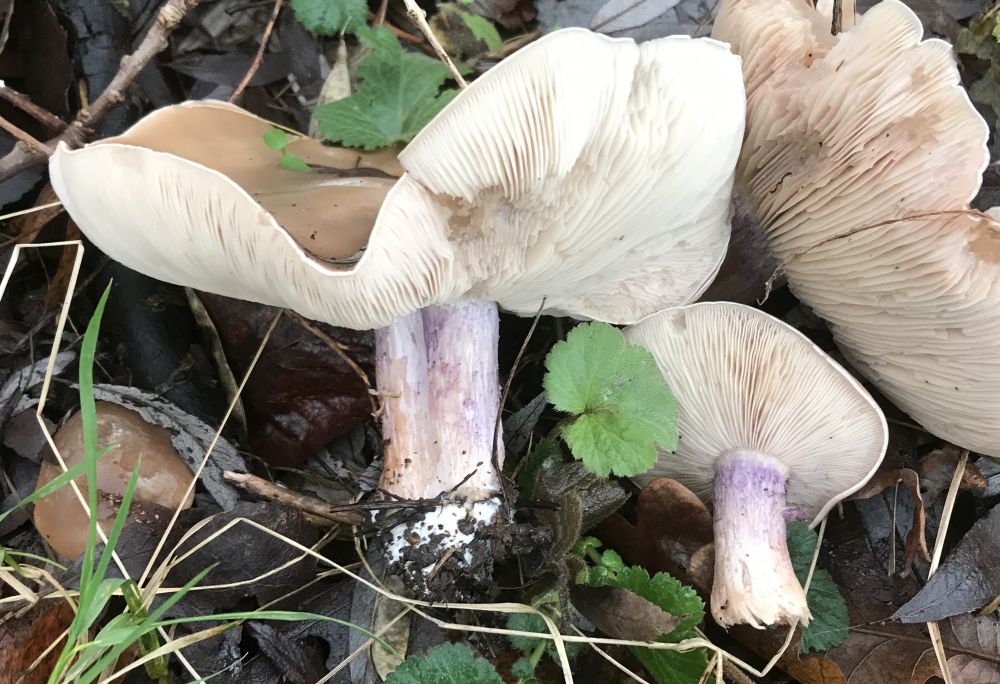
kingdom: Fungi
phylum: Basidiomycota
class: Agaricomycetes
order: Agaricales
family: Tricholomataceae
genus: Lepista
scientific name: Lepista personata
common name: bleg hekseringshat
